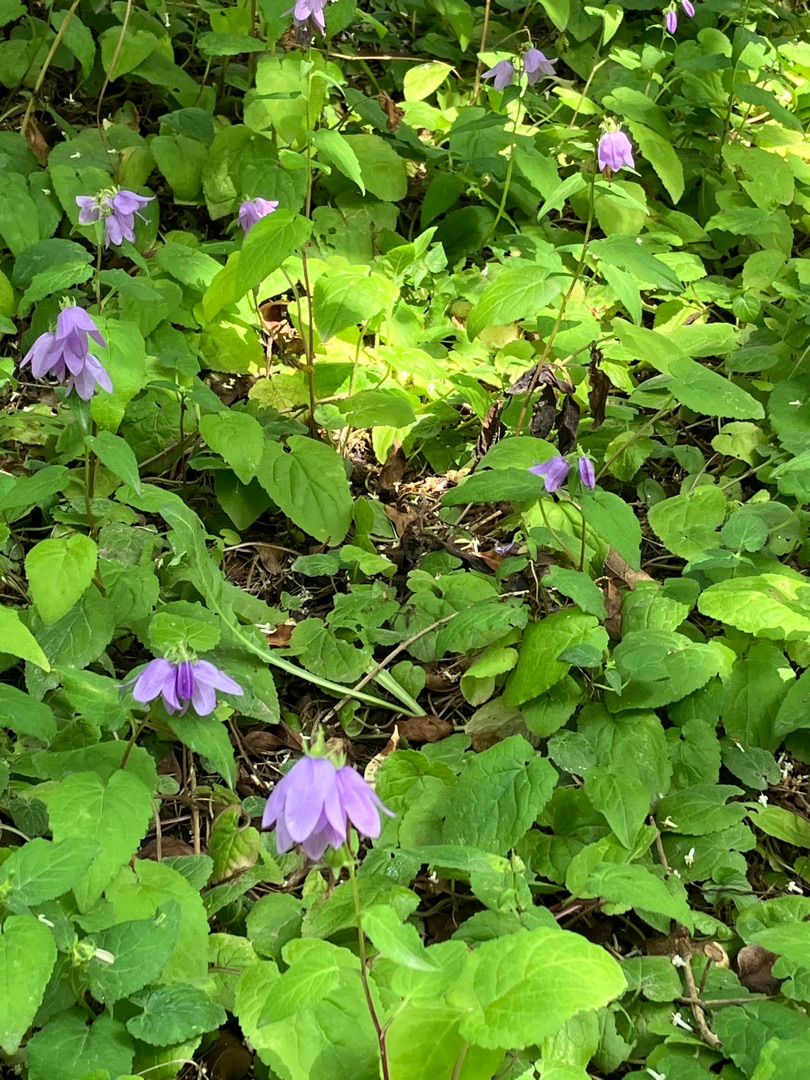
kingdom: Plantae
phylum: Tracheophyta
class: Magnoliopsida
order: Asterales
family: Campanulaceae
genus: Campanula
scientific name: Campanula trachelium
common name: Nælde-klokke
